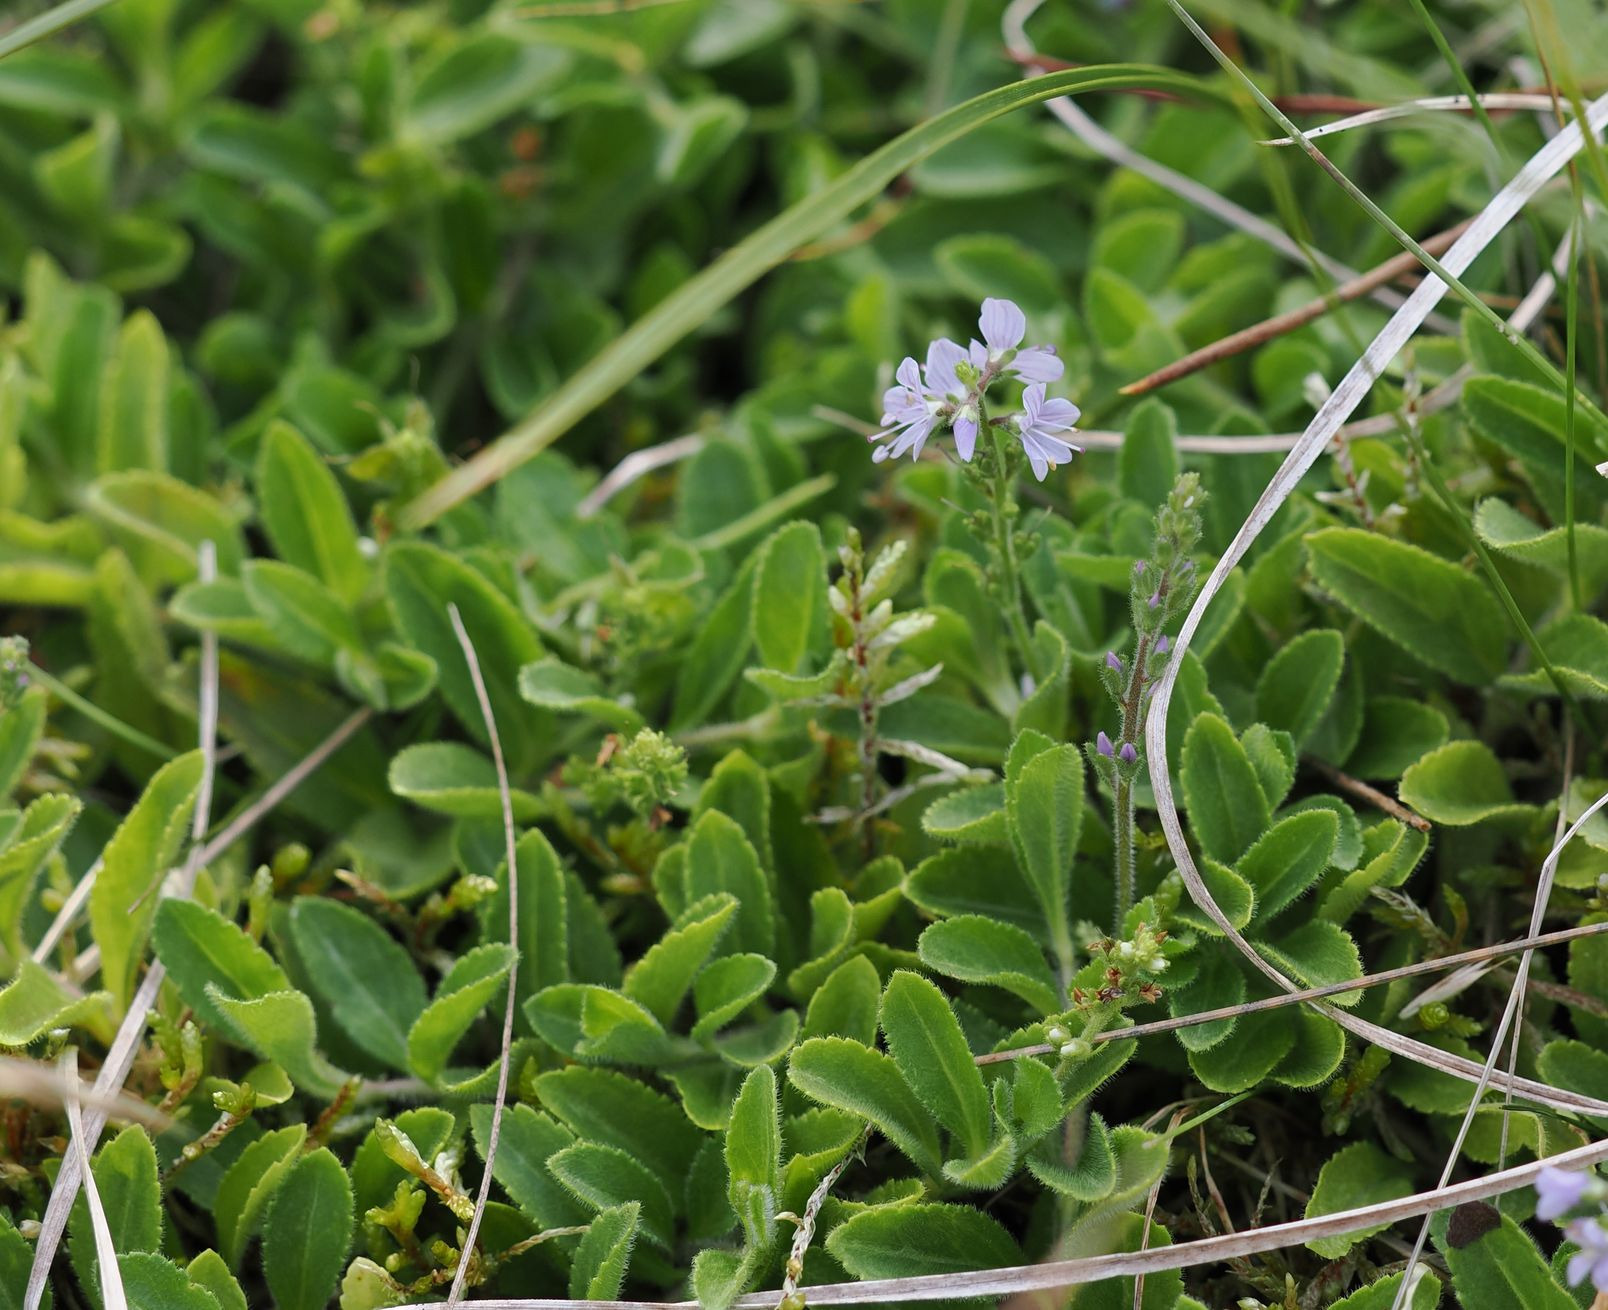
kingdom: Plantae
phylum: Tracheophyta
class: Magnoliopsida
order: Lamiales
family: Plantaginaceae
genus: Veronica
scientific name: Veronica officinalis
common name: Læge-ærenpris
